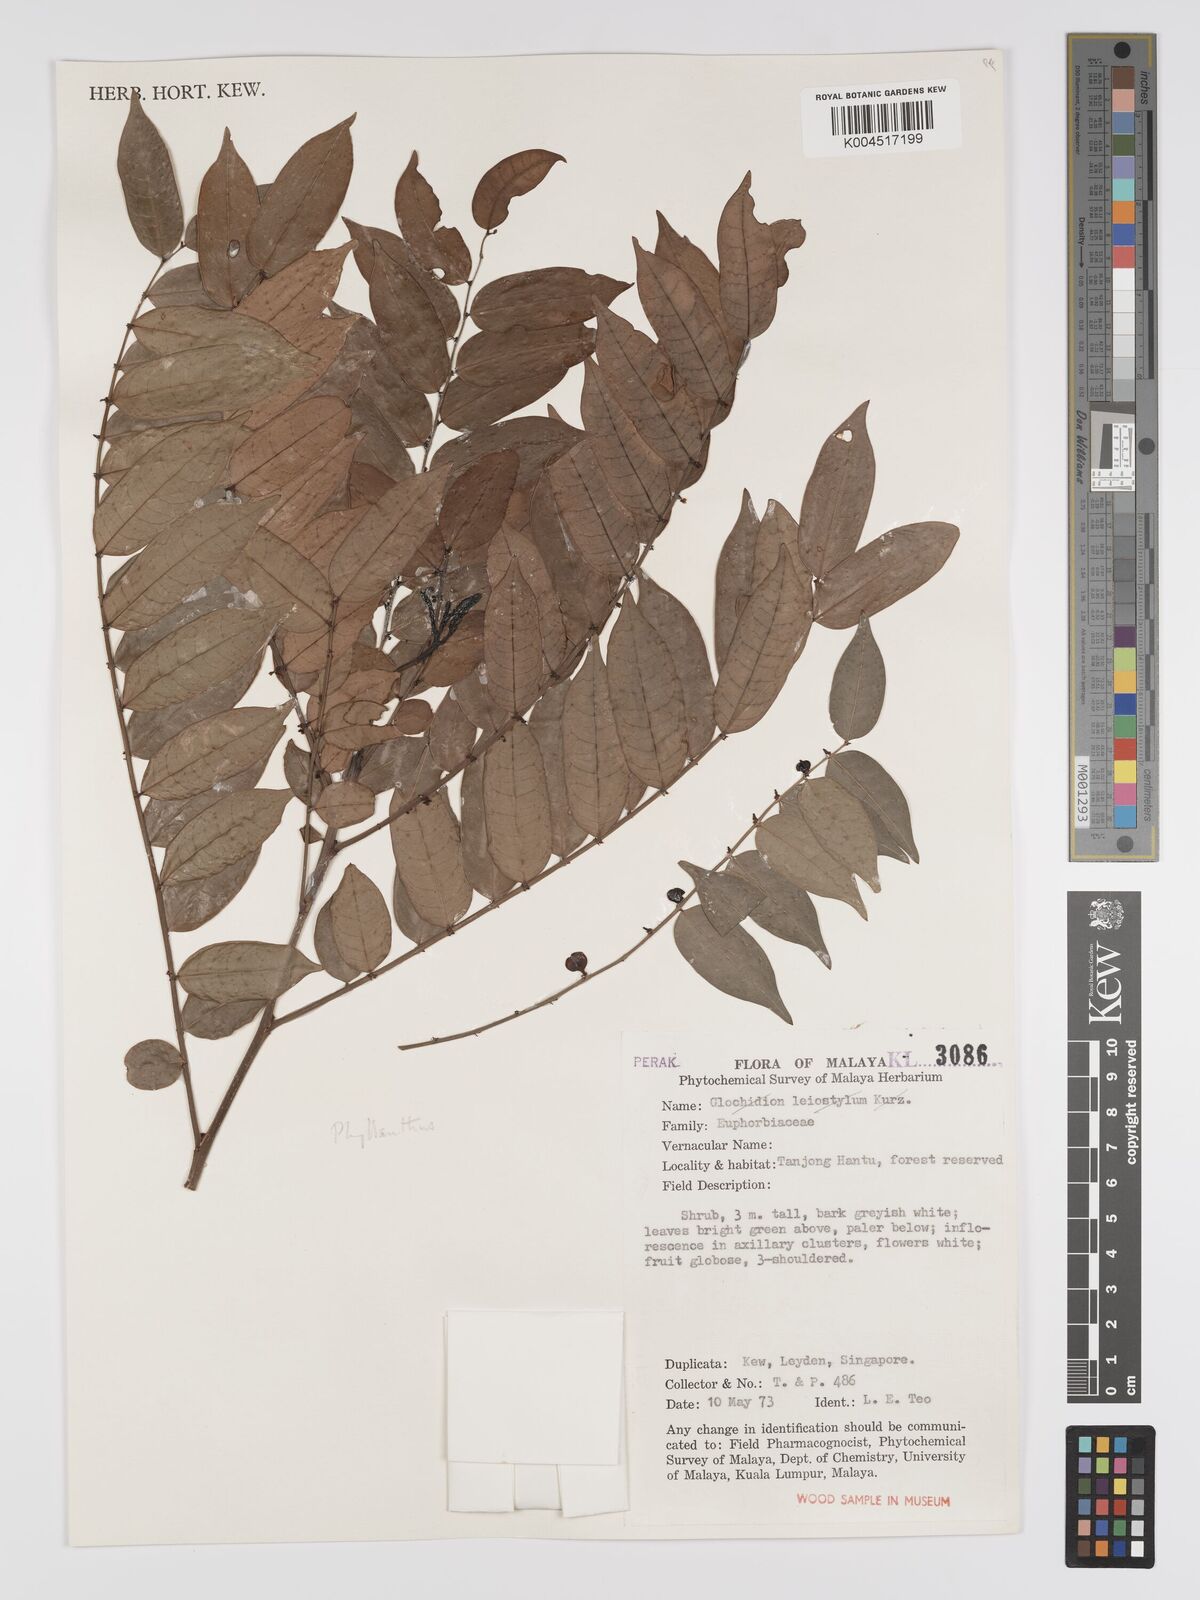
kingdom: Plantae
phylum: Tracheophyta
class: Magnoliopsida
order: Malpighiales
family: Phyllanthaceae
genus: Phyllanthus
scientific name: Phyllanthus
